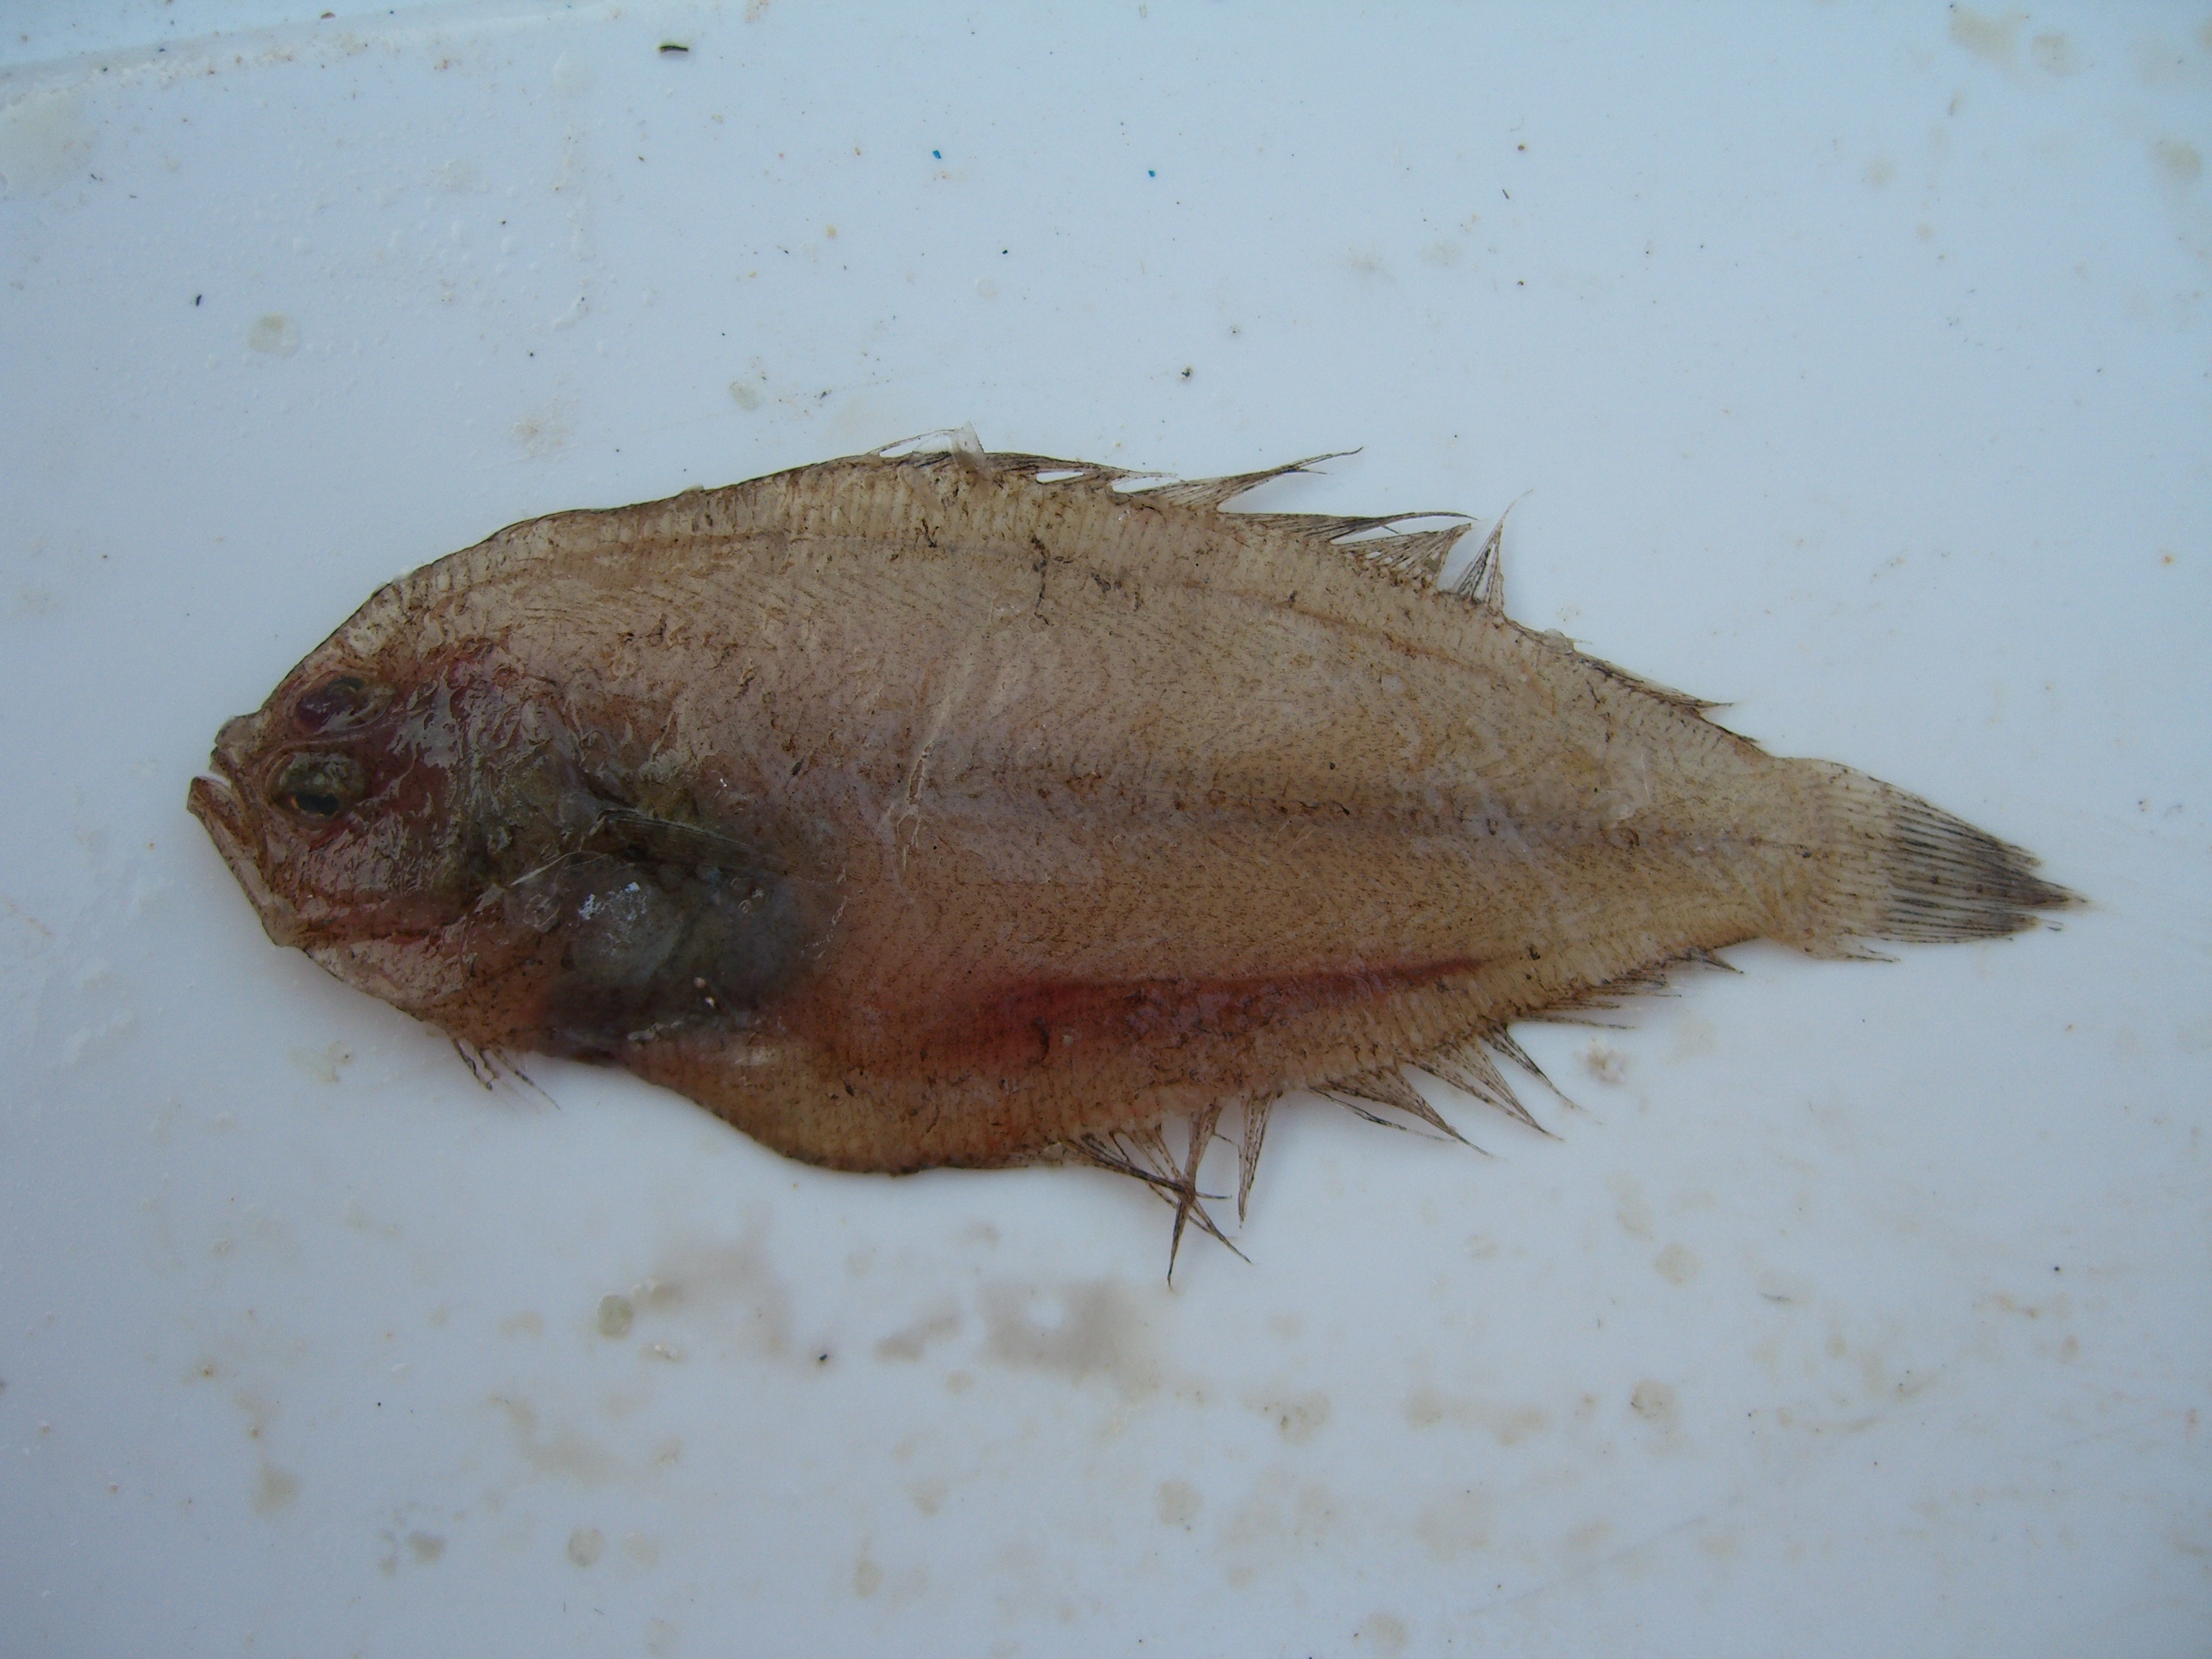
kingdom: Animalia
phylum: Chordata
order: Pleuronectiformes
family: Bothidae
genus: Arnoglossus
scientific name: Arnoglossus
